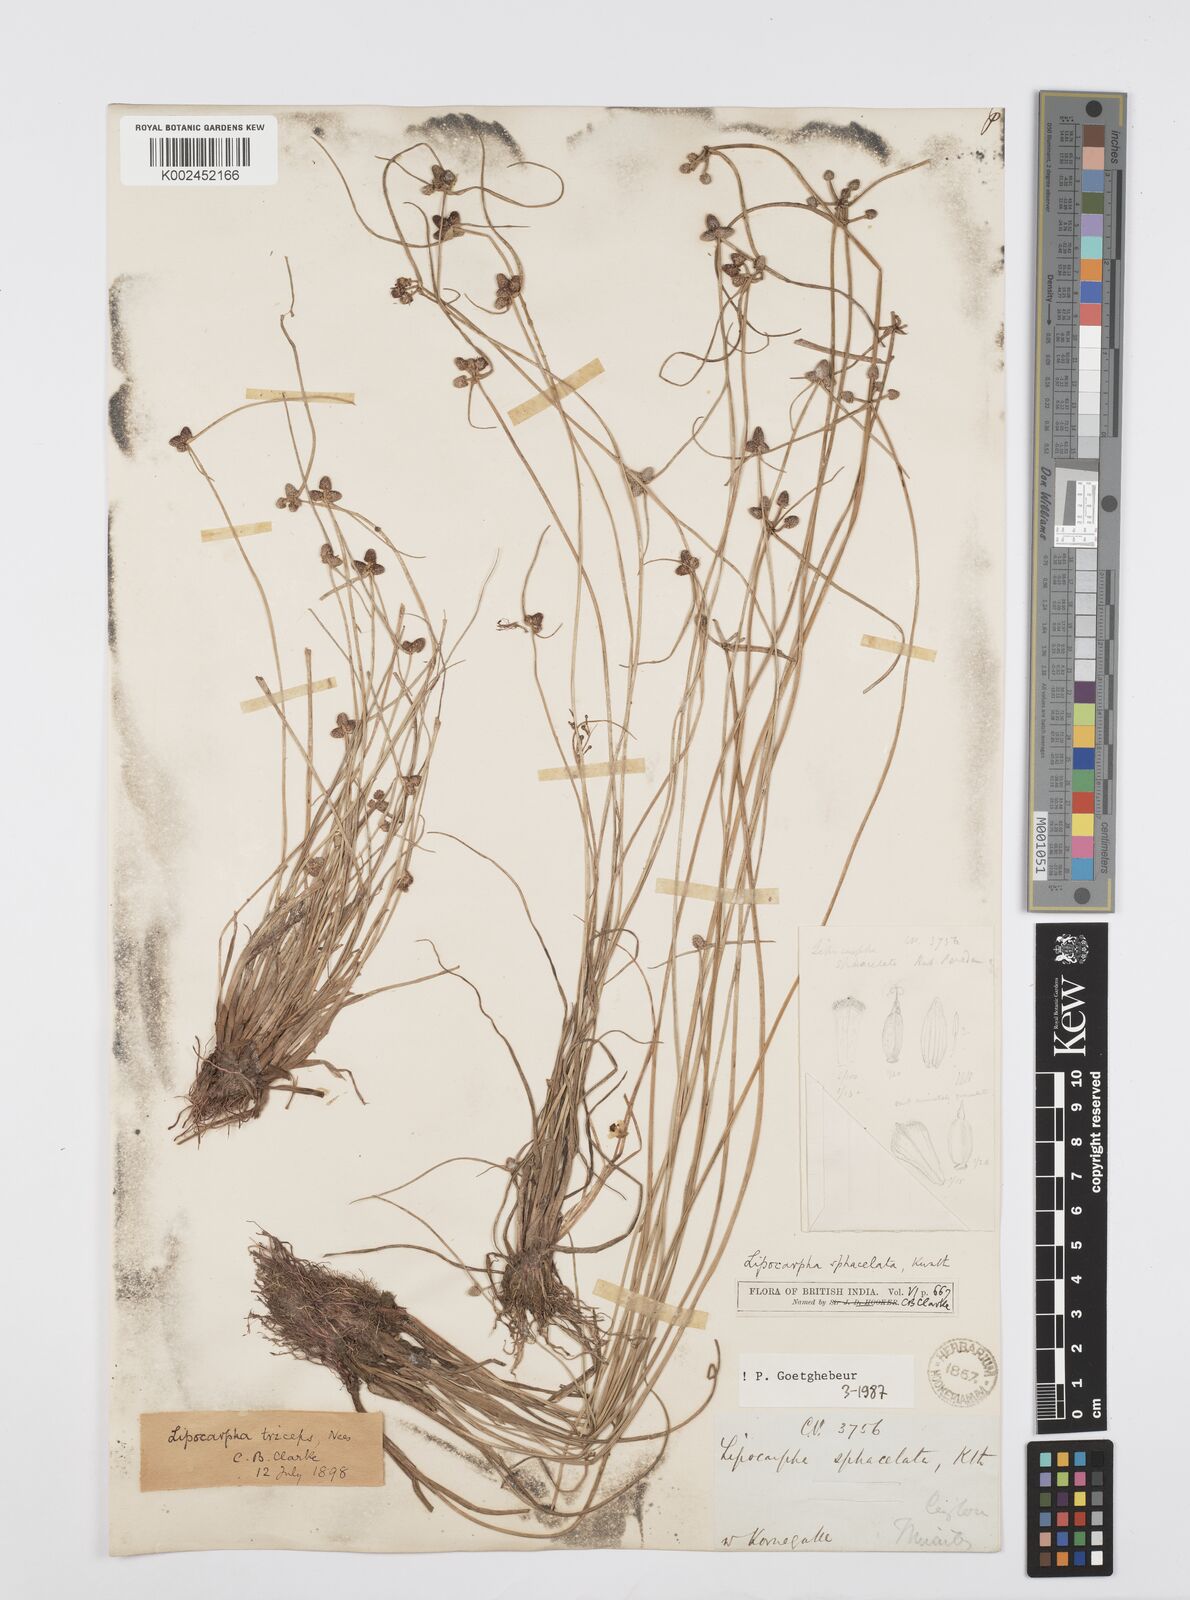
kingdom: Plantae
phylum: Tracheophyta
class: Liliopsida
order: Poales
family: Cyperaceae
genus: Cyperus
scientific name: Cyperus sphacelatus
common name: Roadside flatsedge
